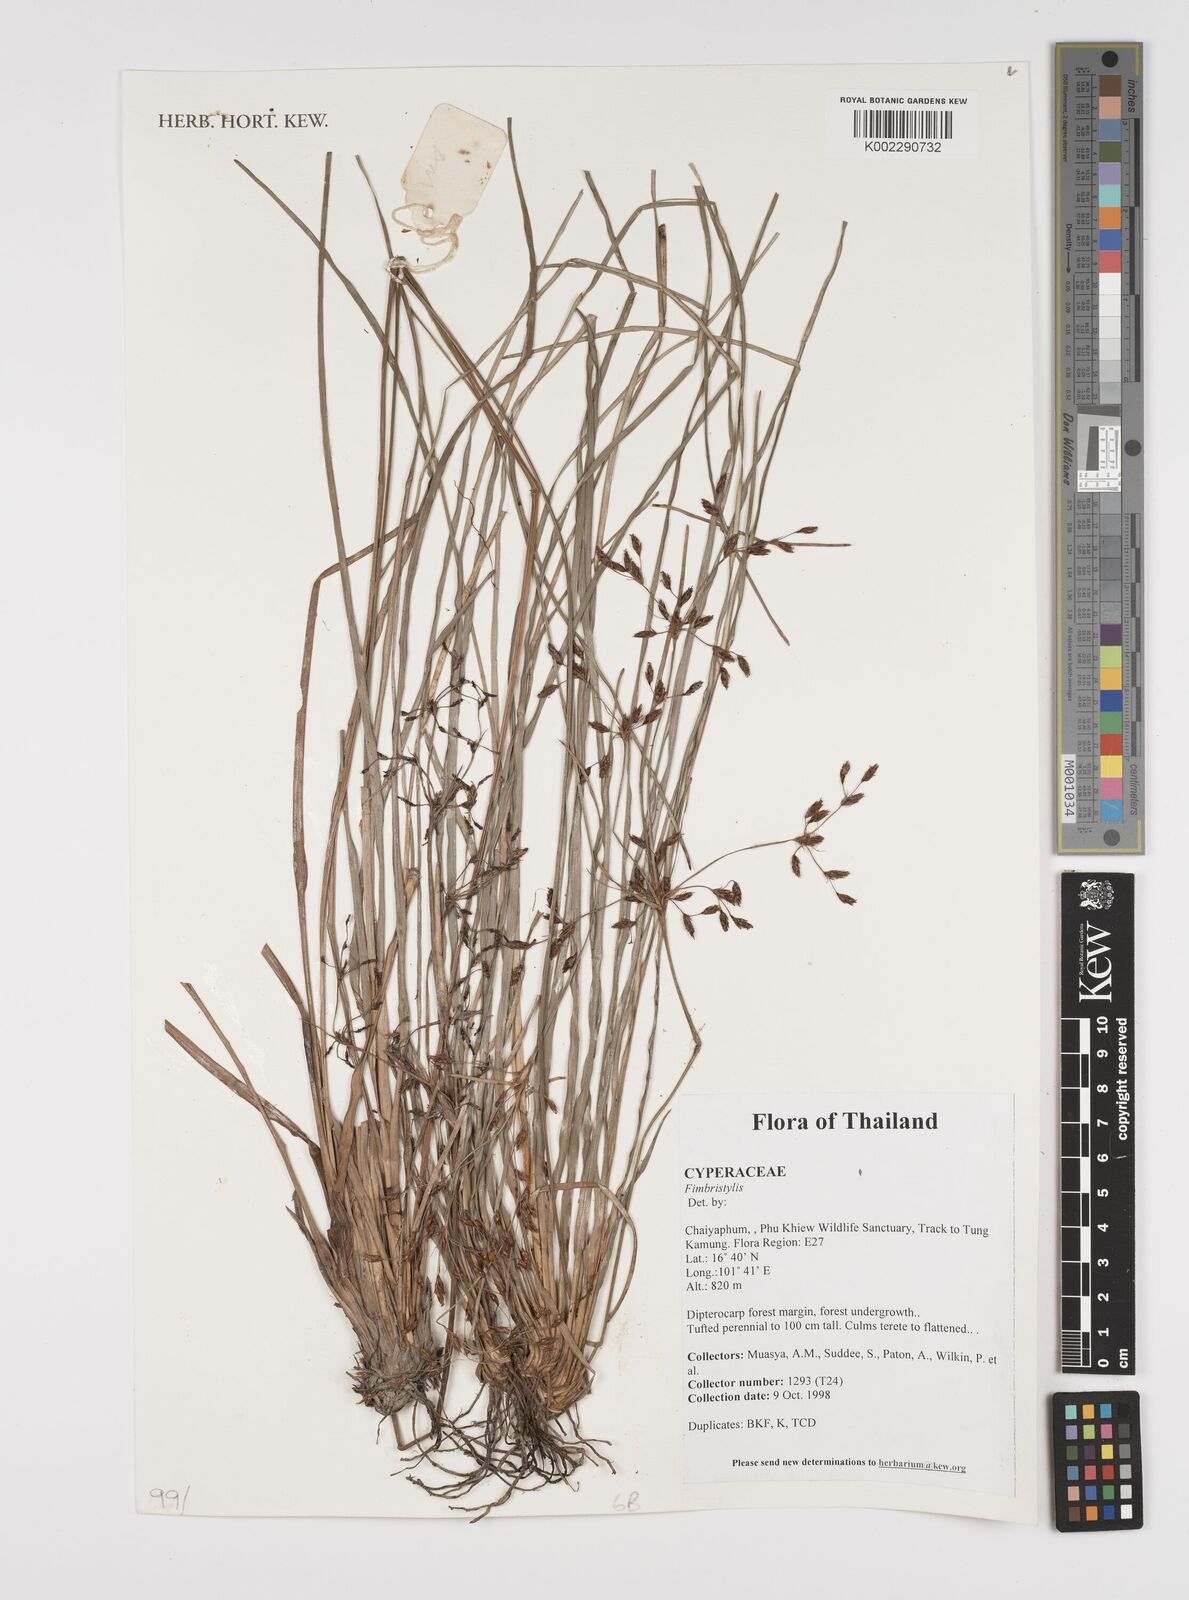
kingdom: Plantae
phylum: Tracheophyta
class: Liliopsida
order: Poales
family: Cyperaceae
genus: Fimbristylis
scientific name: Fimbristylis
